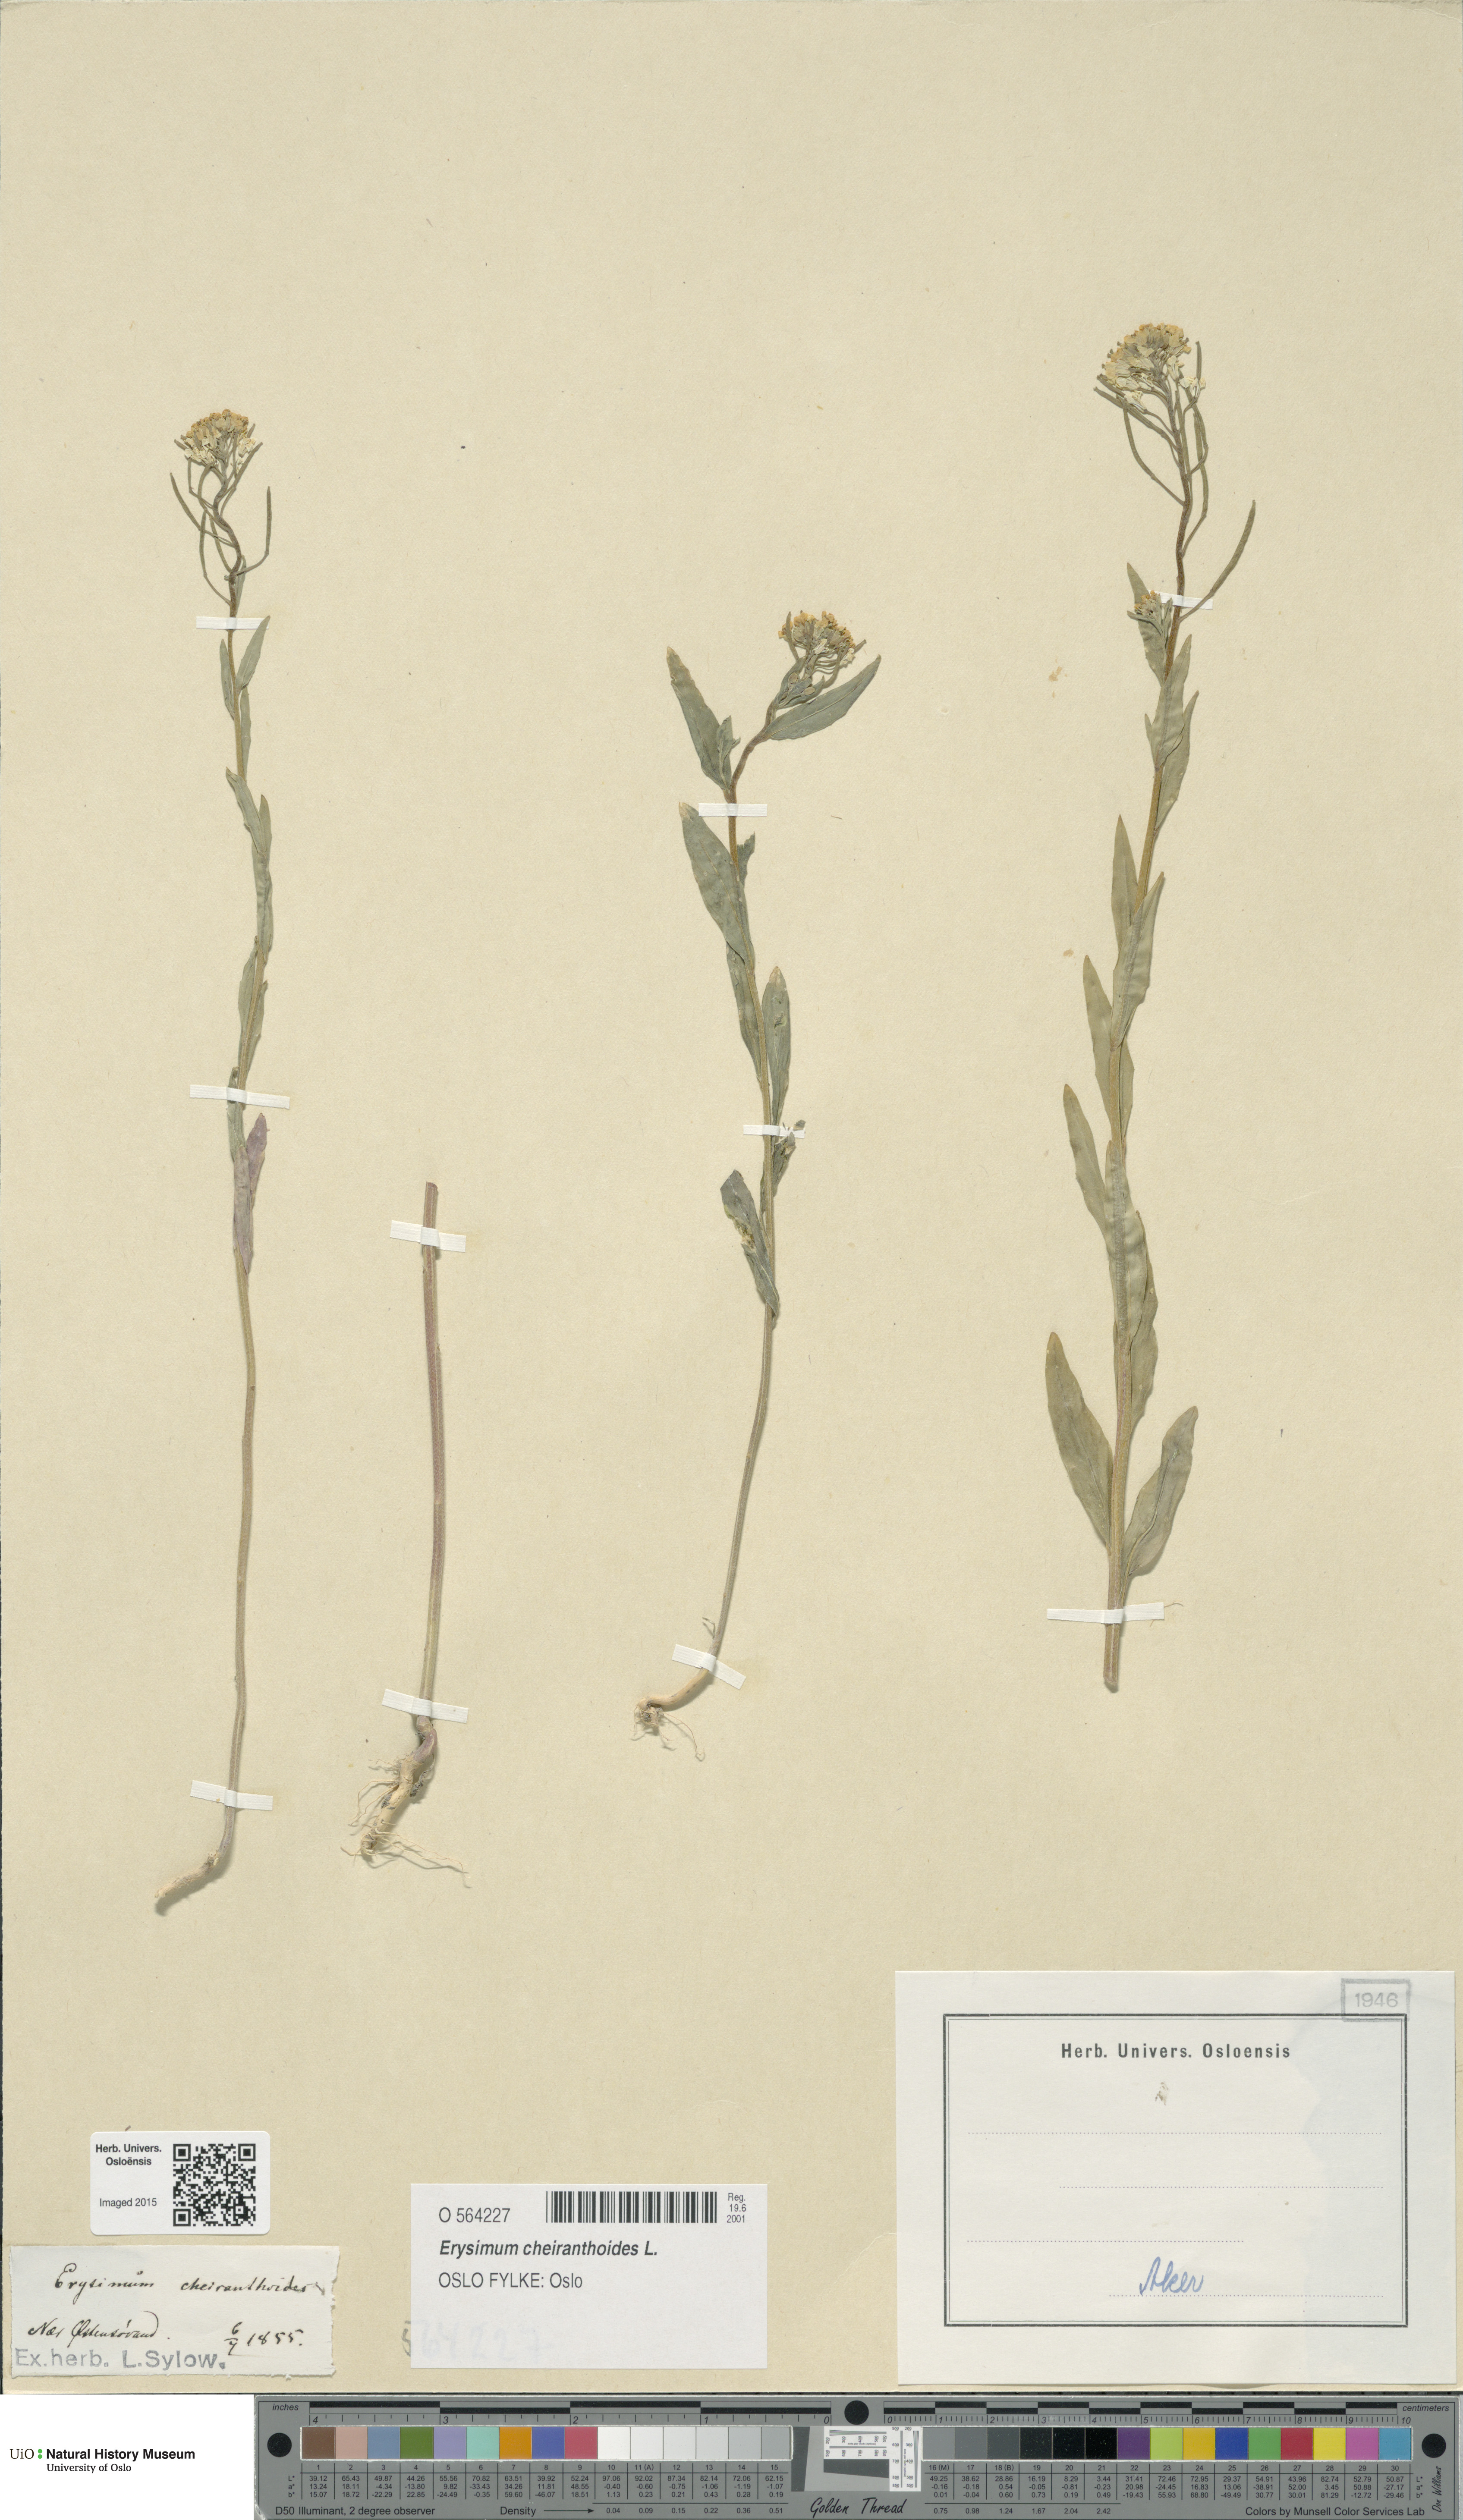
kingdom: Plantae
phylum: Tracheophyta
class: Magnoliopsida
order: Brassicales
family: Brassicaceae
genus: Erysimum
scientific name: Erysimum cheiranthoides
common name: Treacle mustard
